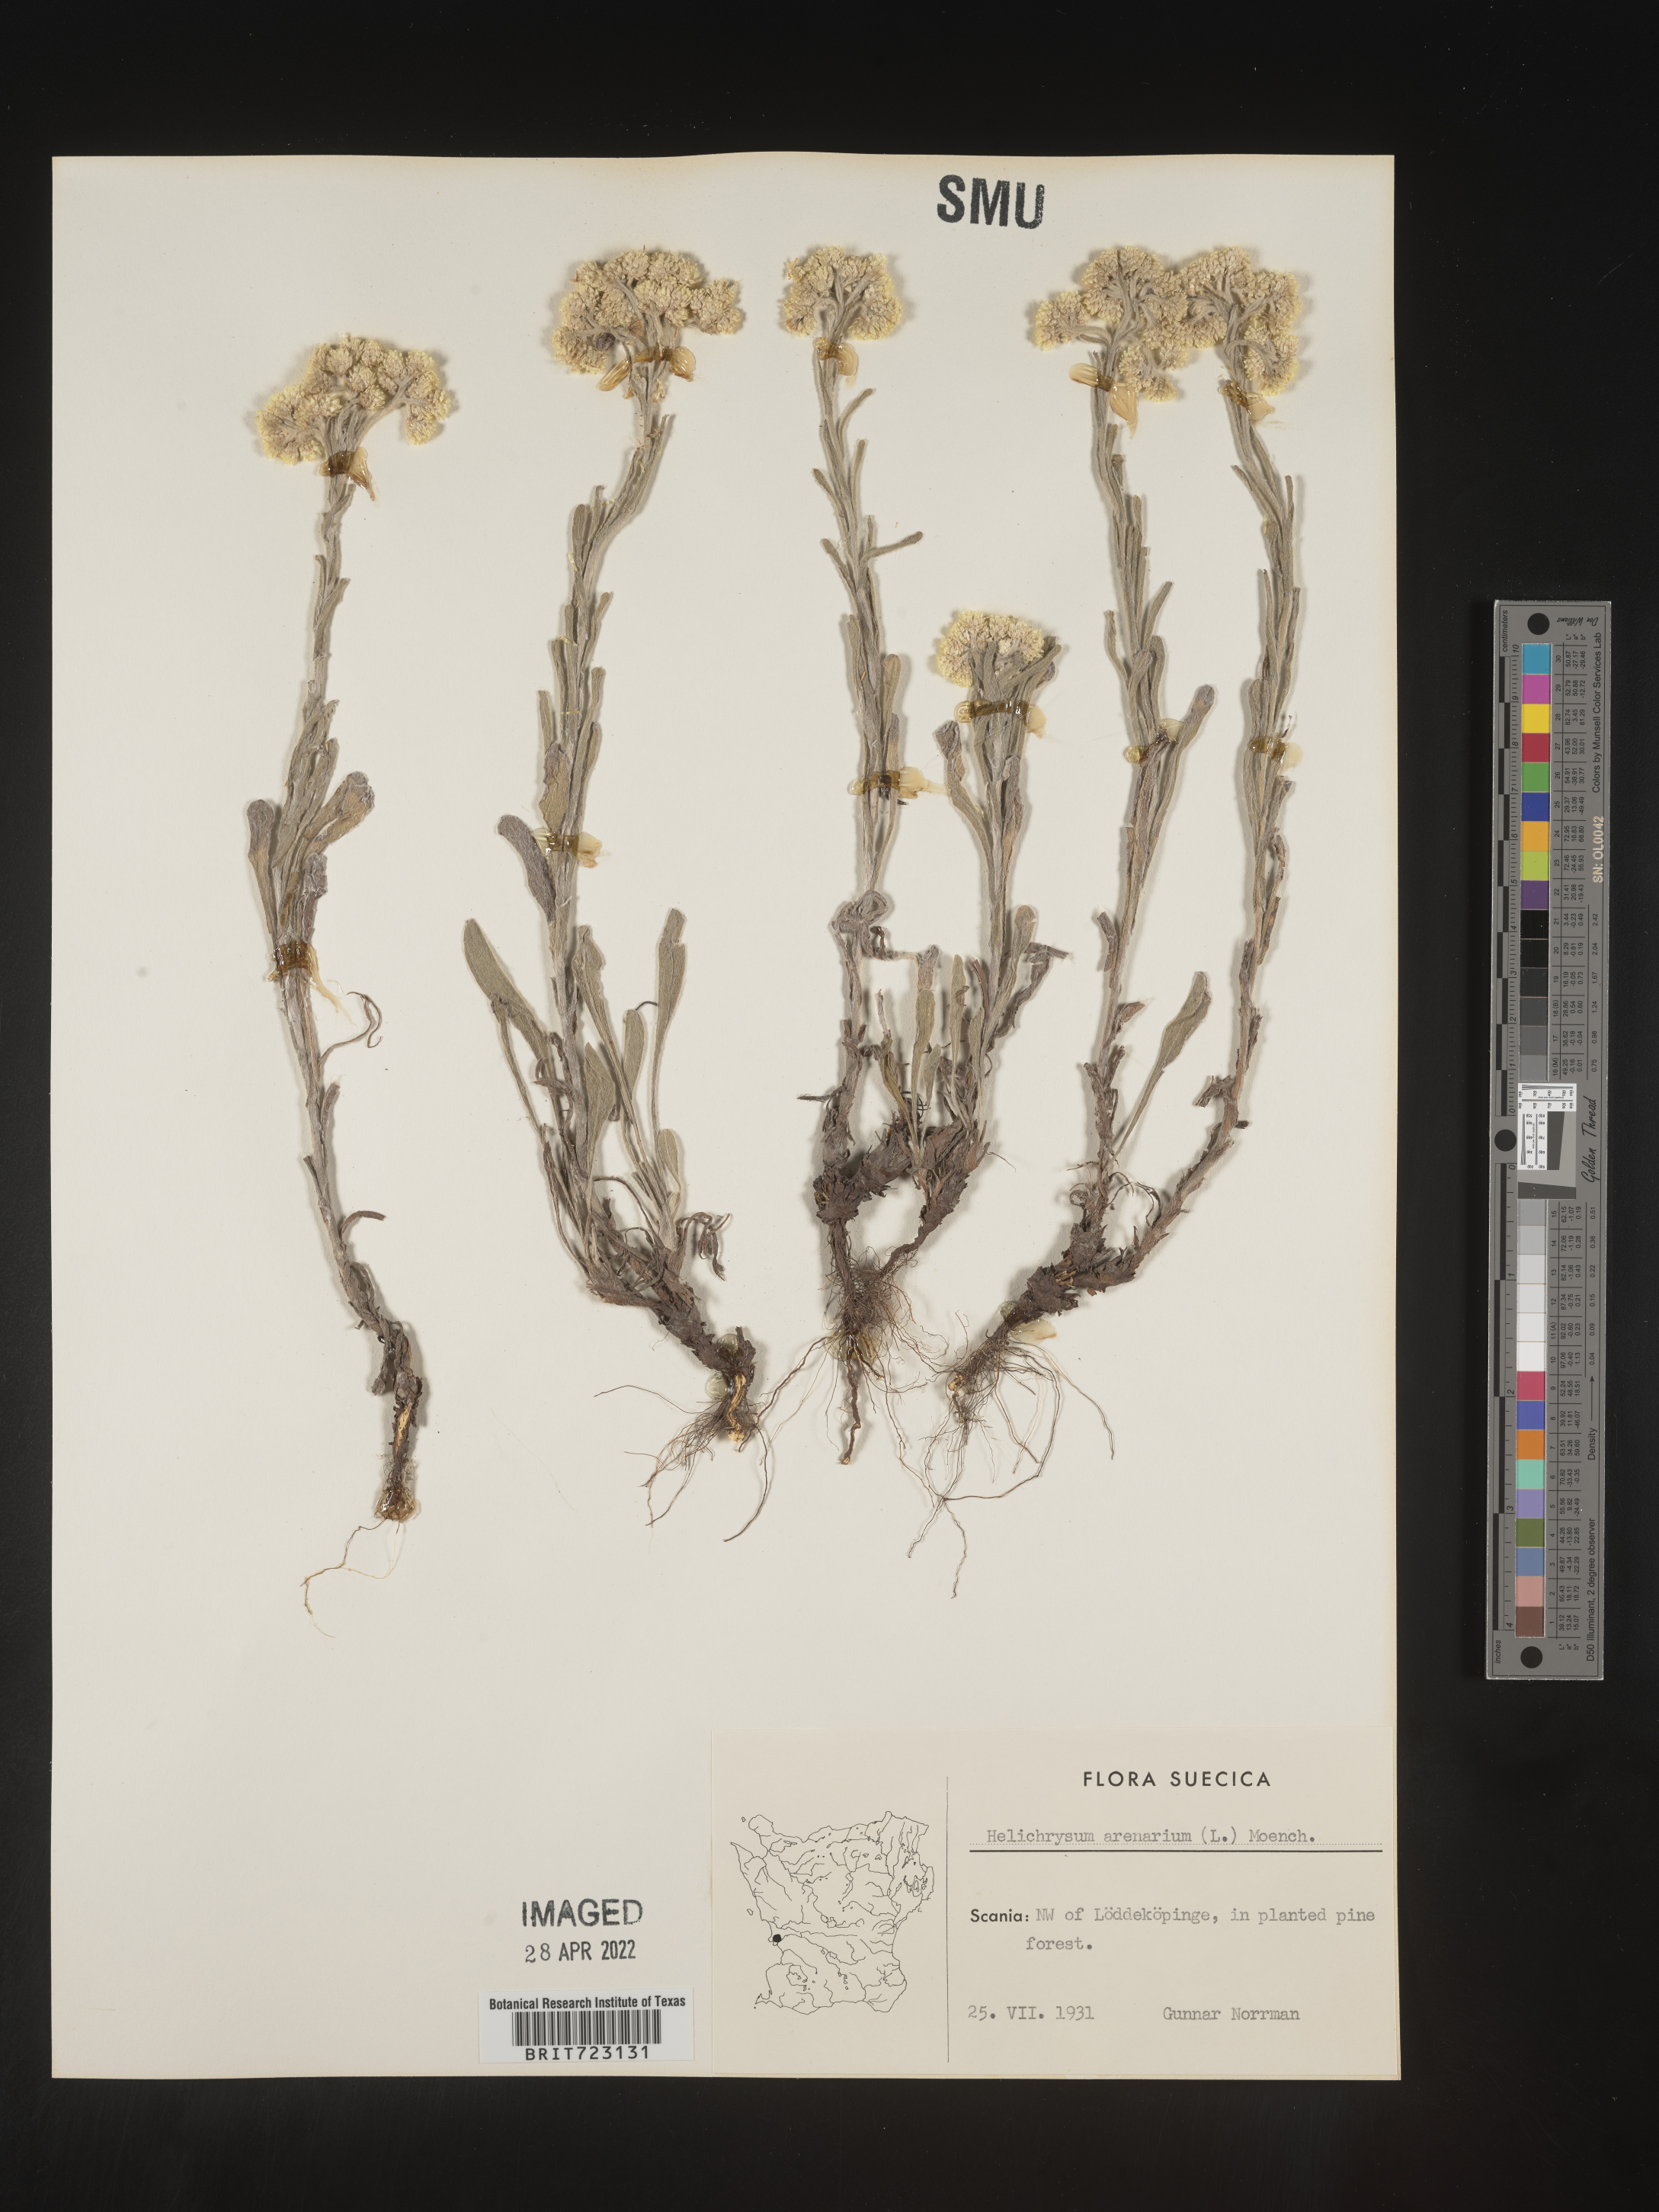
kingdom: Plantae
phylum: Tracheophyta
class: Magnoliopsida
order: Asterales
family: Asteraceae
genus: Helichrysum
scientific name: Helichrysum arenarium
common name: Strawflower
